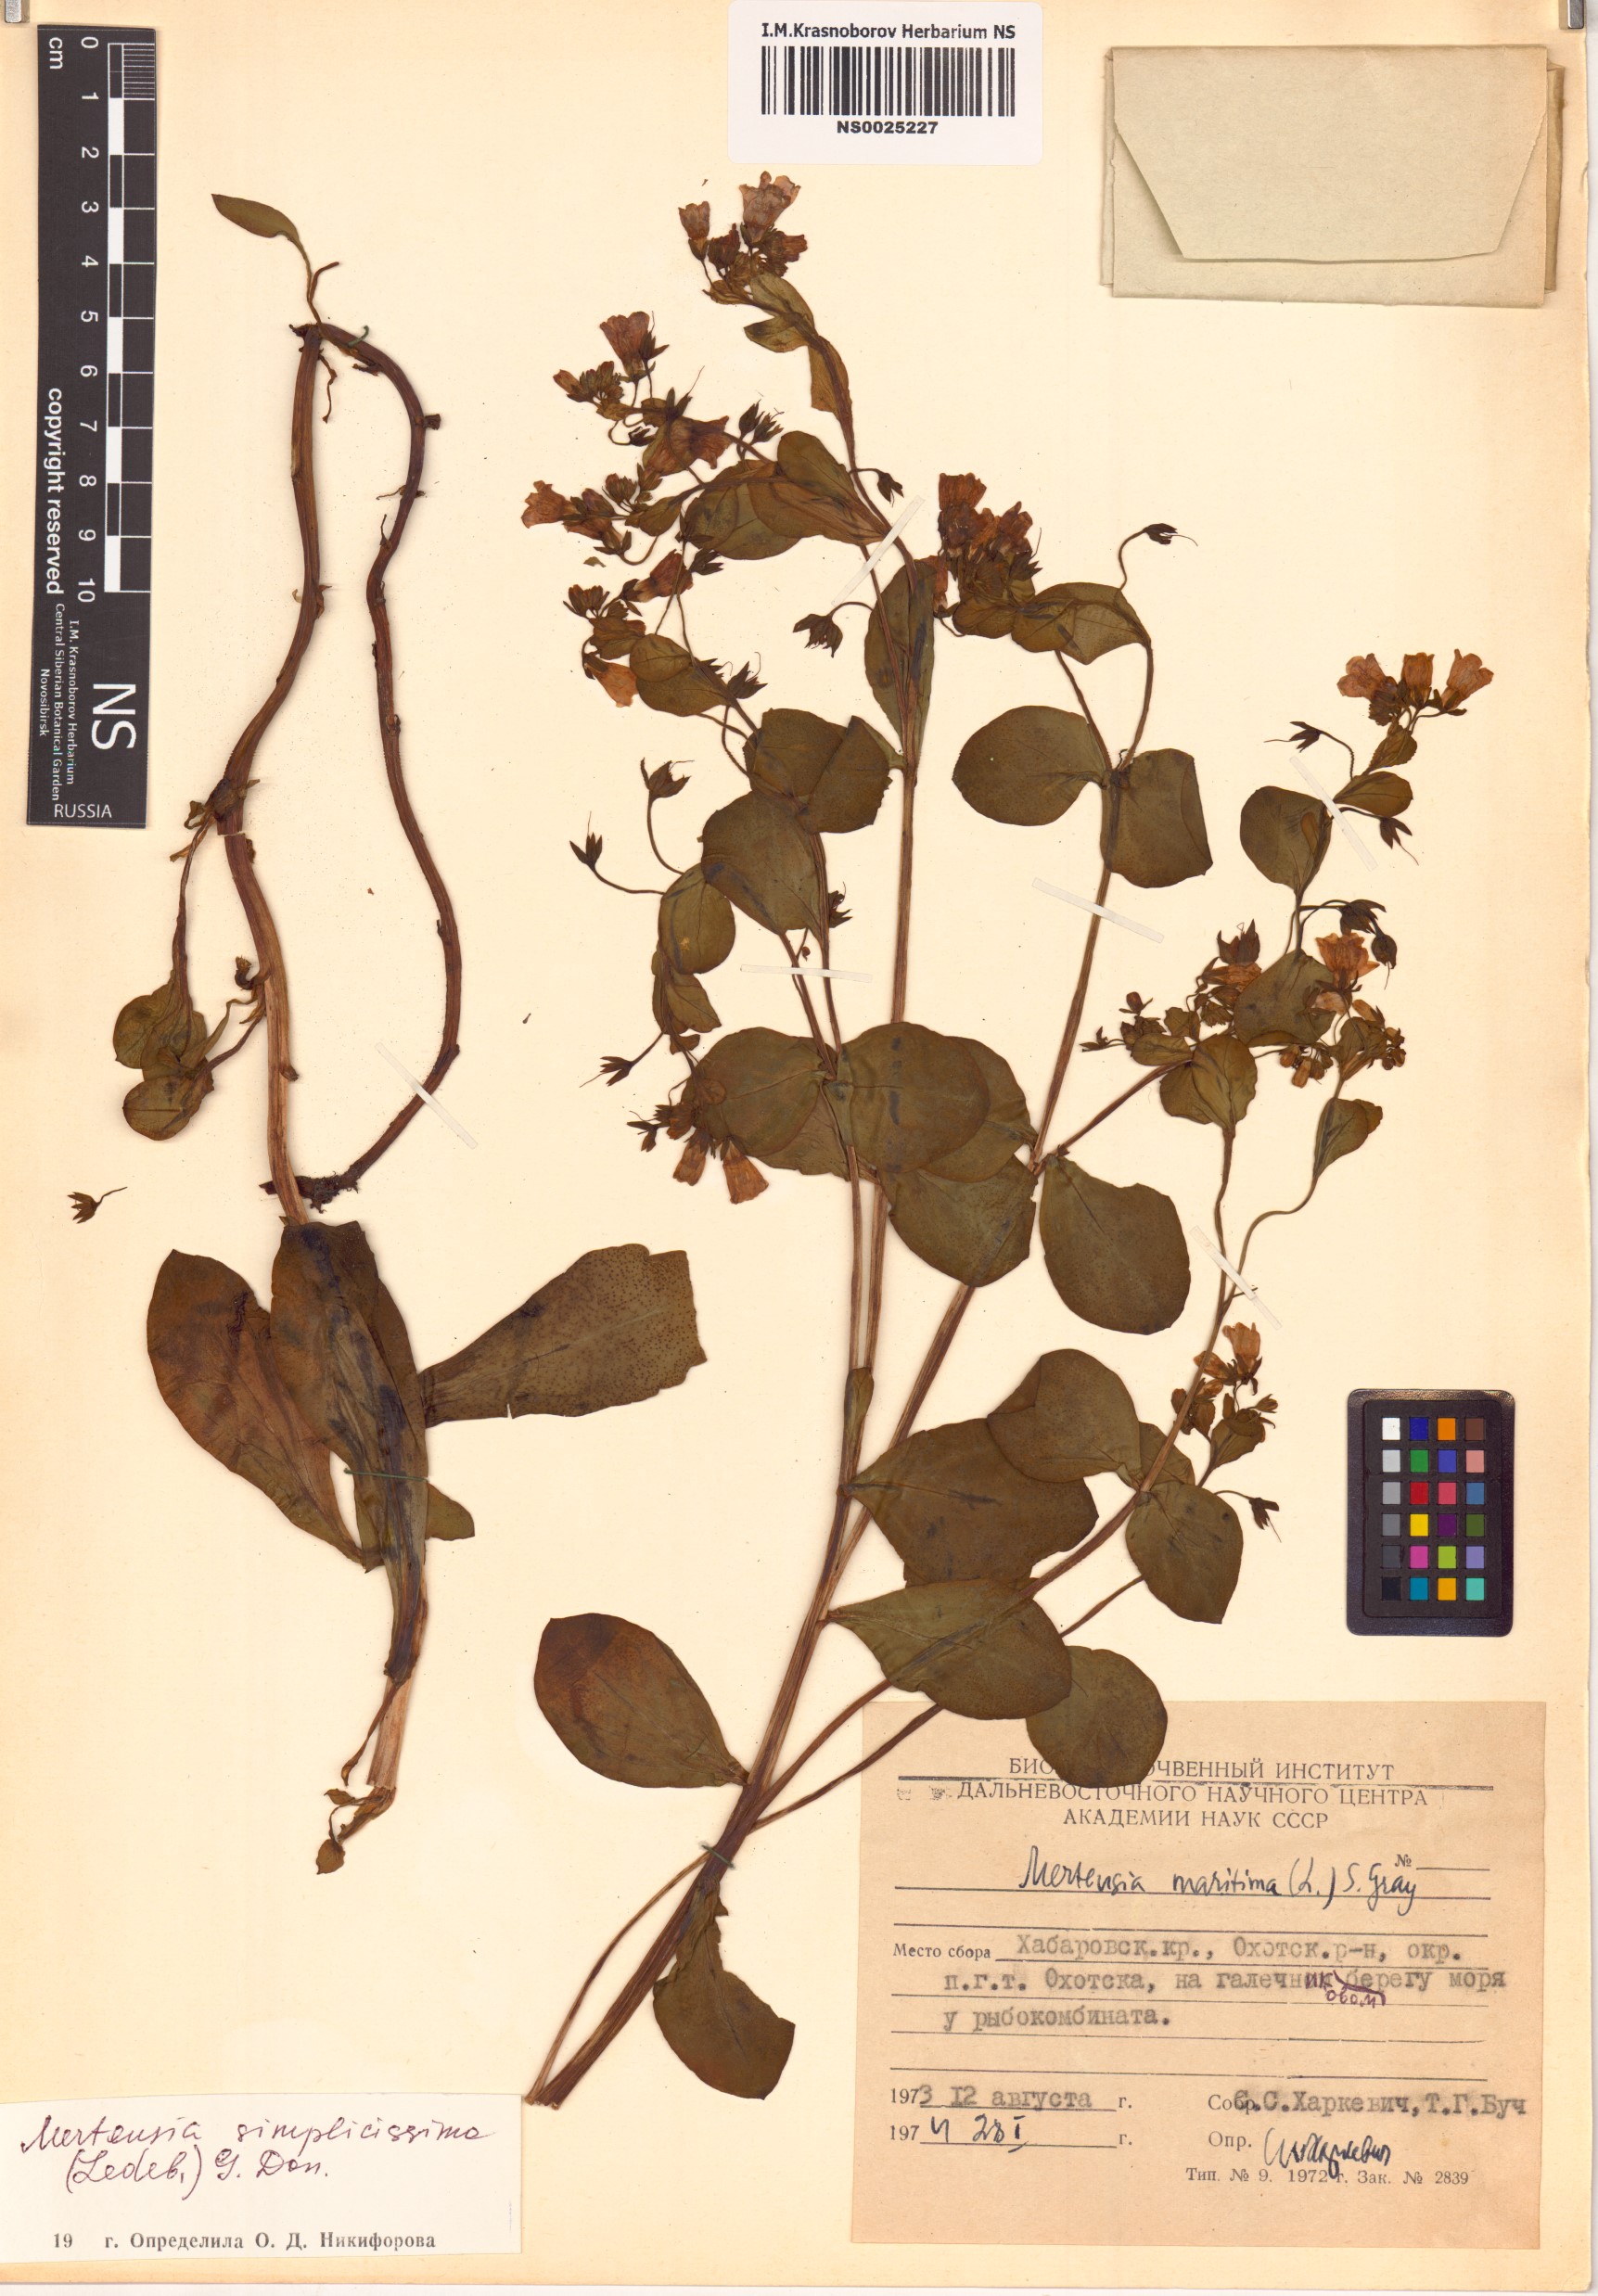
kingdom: Plantae
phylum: Tracheophyta
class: Magnoliopsida
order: Boraginales
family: Boraginaceae
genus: Mertensia
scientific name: Mertensia simplicissima
